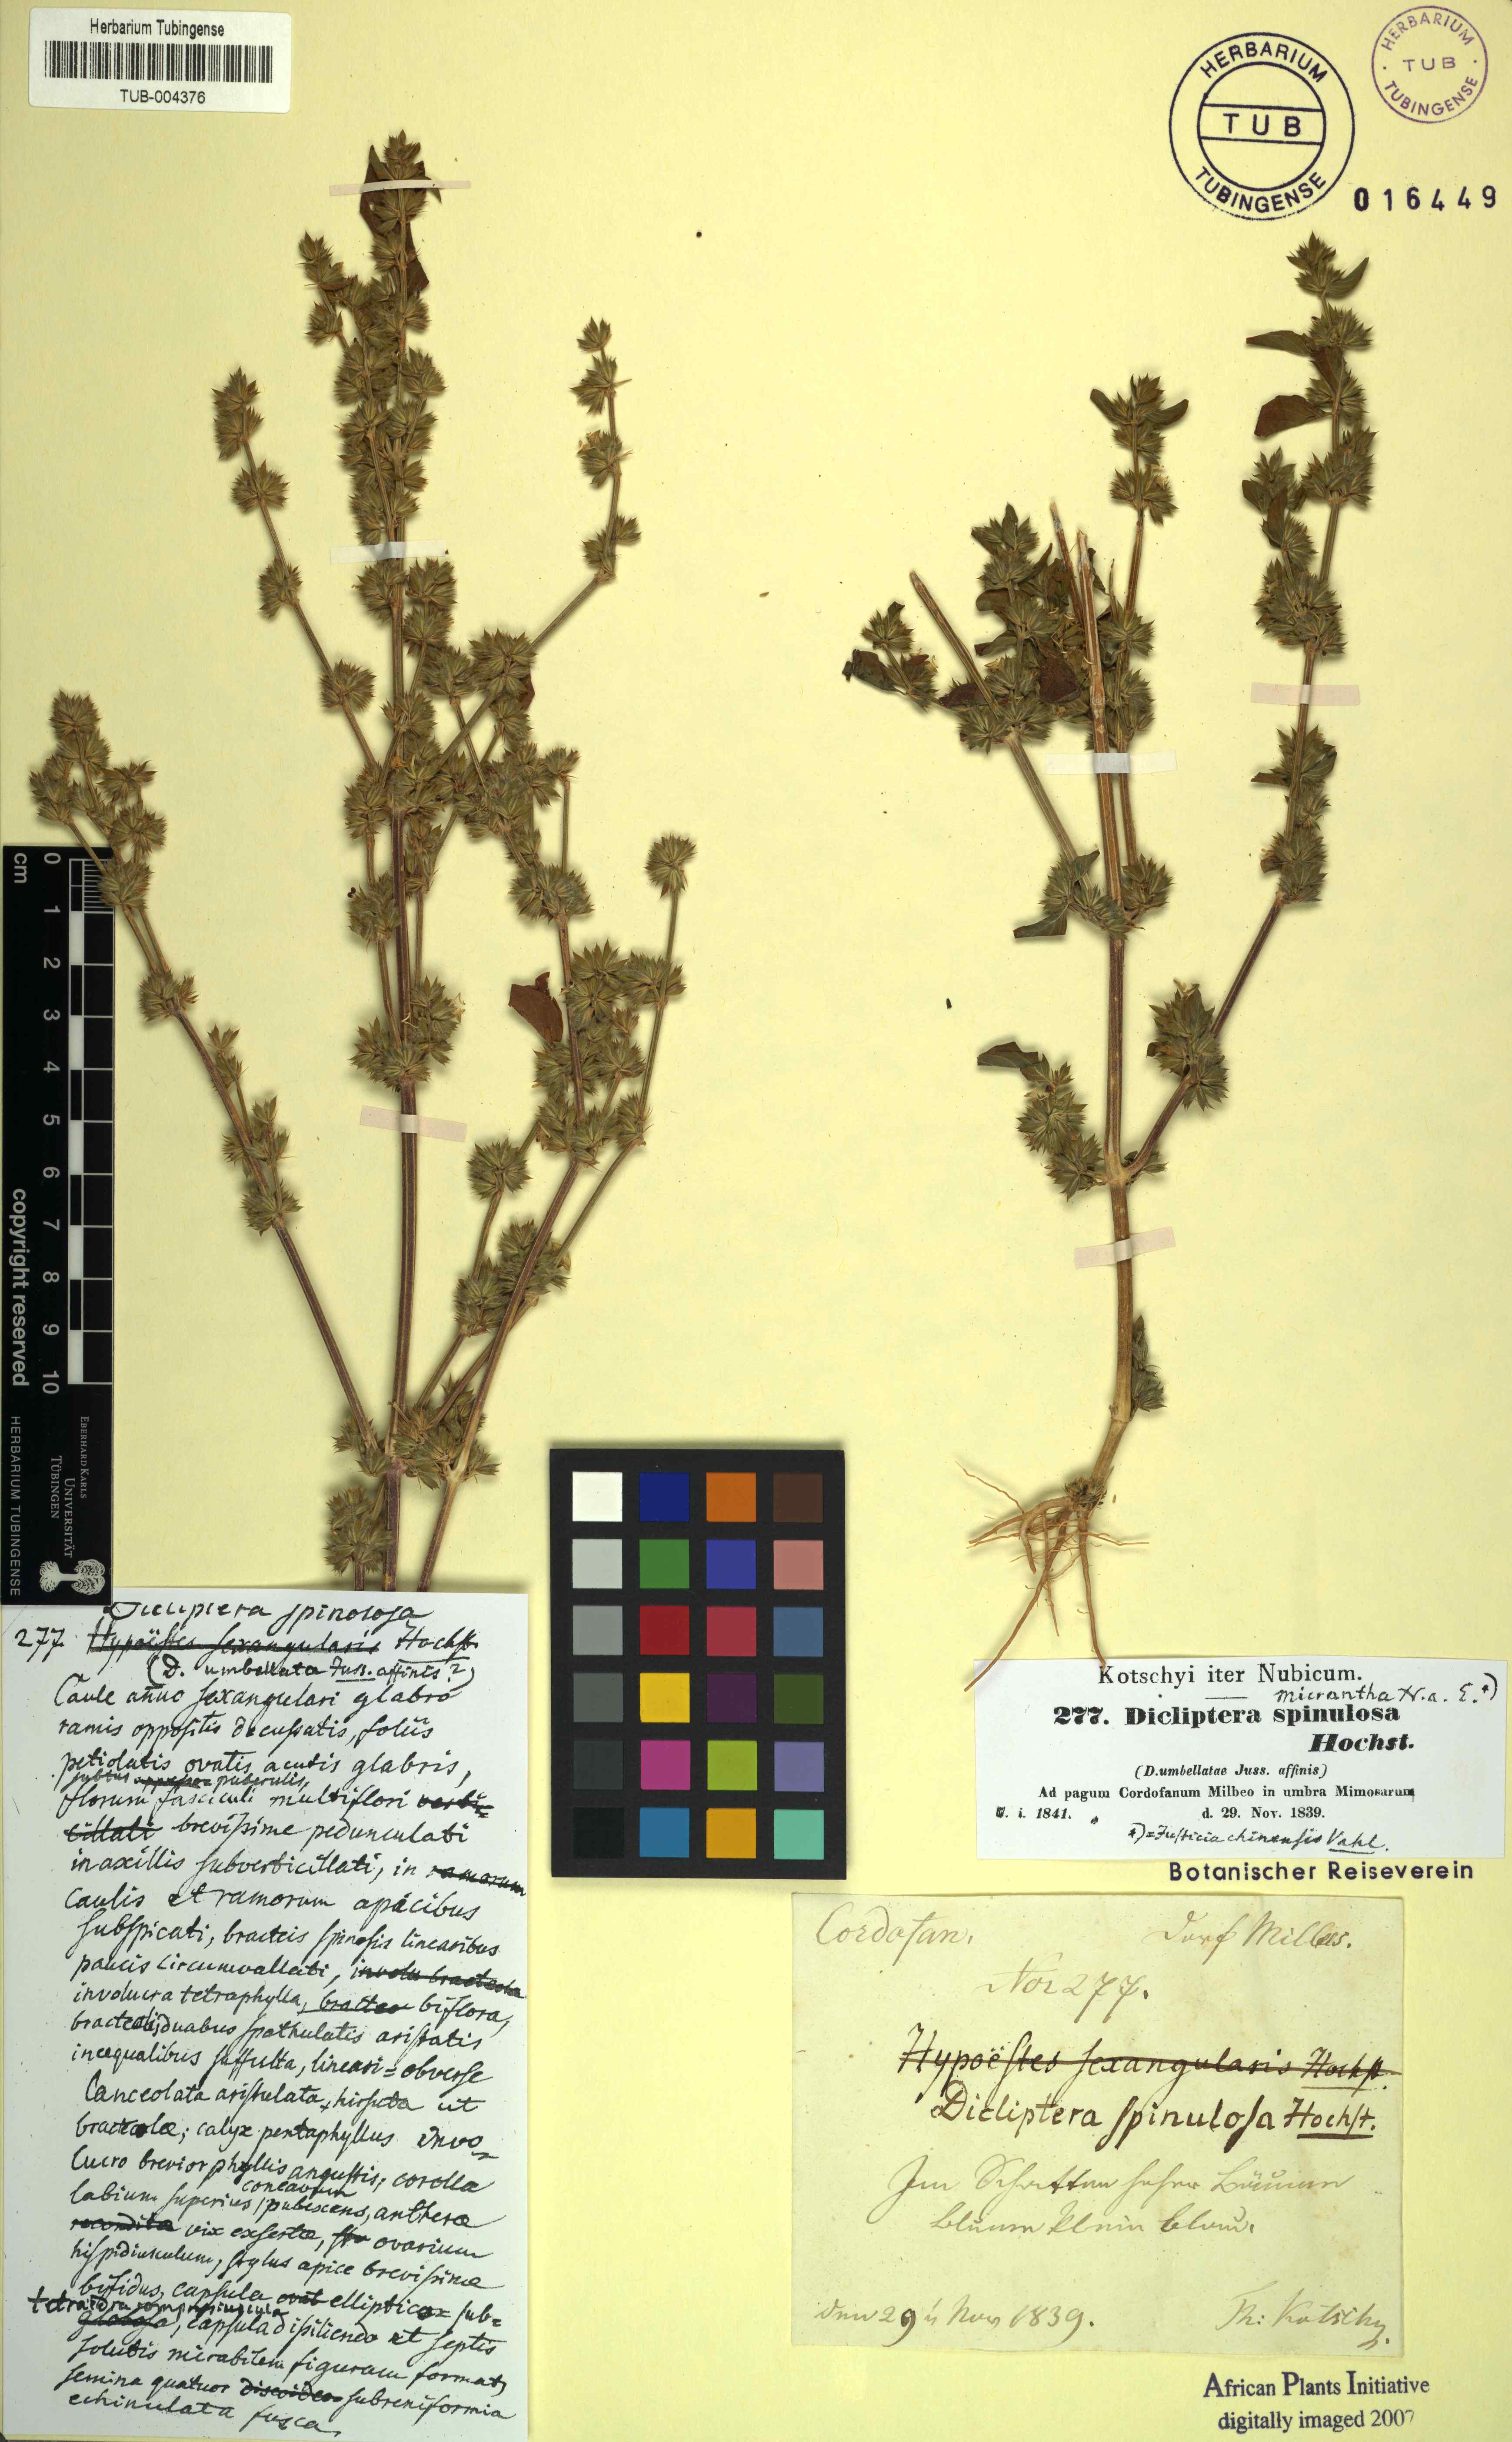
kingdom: Plantae
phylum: Tracheophyta
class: Magnoliopsida
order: Lamiales
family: Acanthaceae
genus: Dicliptera
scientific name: Dicliptera verticillata
